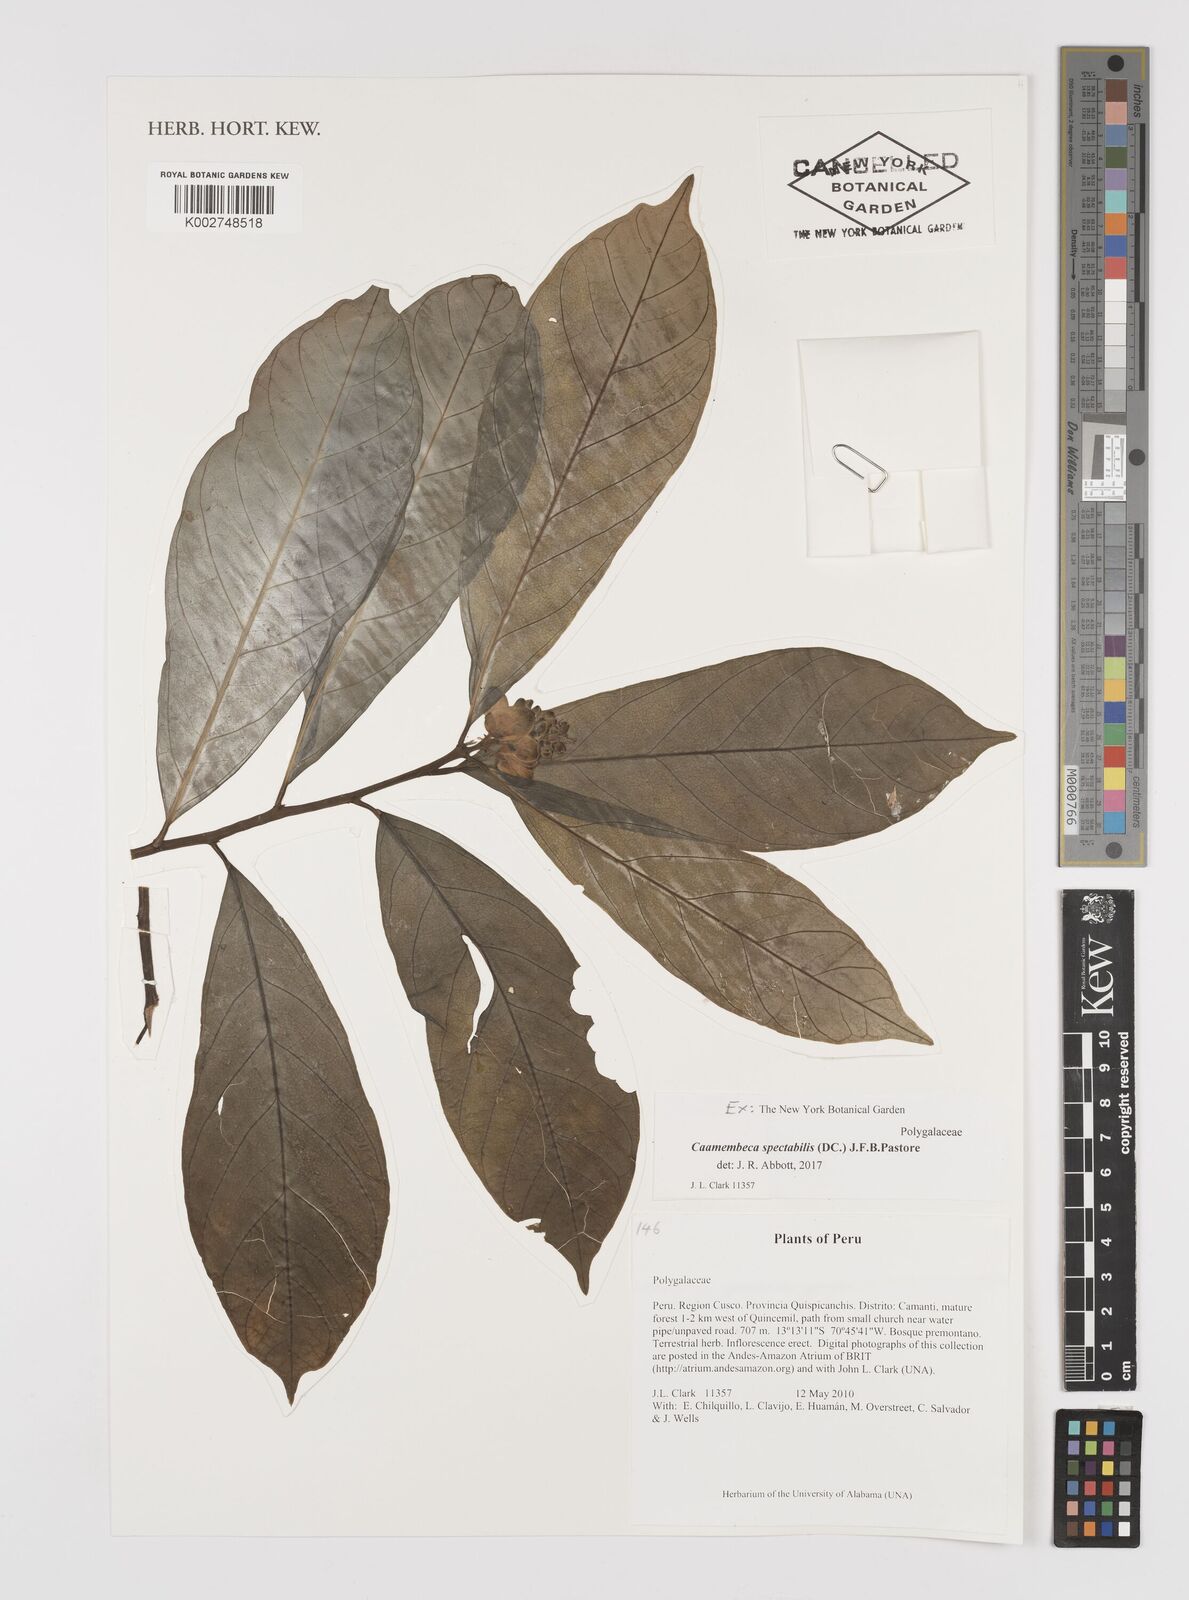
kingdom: Plantae
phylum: Tracheophyta
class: Magnoliopsida
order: Fabales
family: Polygalaceae
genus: Caamembeca
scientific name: Caamembeca spectabilis
